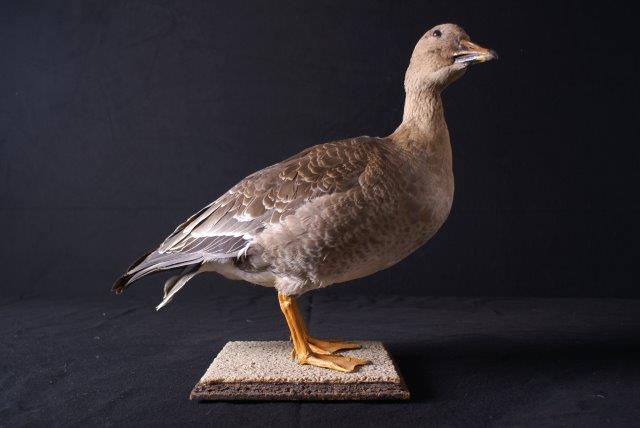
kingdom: Animalia
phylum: Chordata
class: Aves
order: Anseriformes
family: Anatidae
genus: Anser
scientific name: Anser brachyrhynchus
